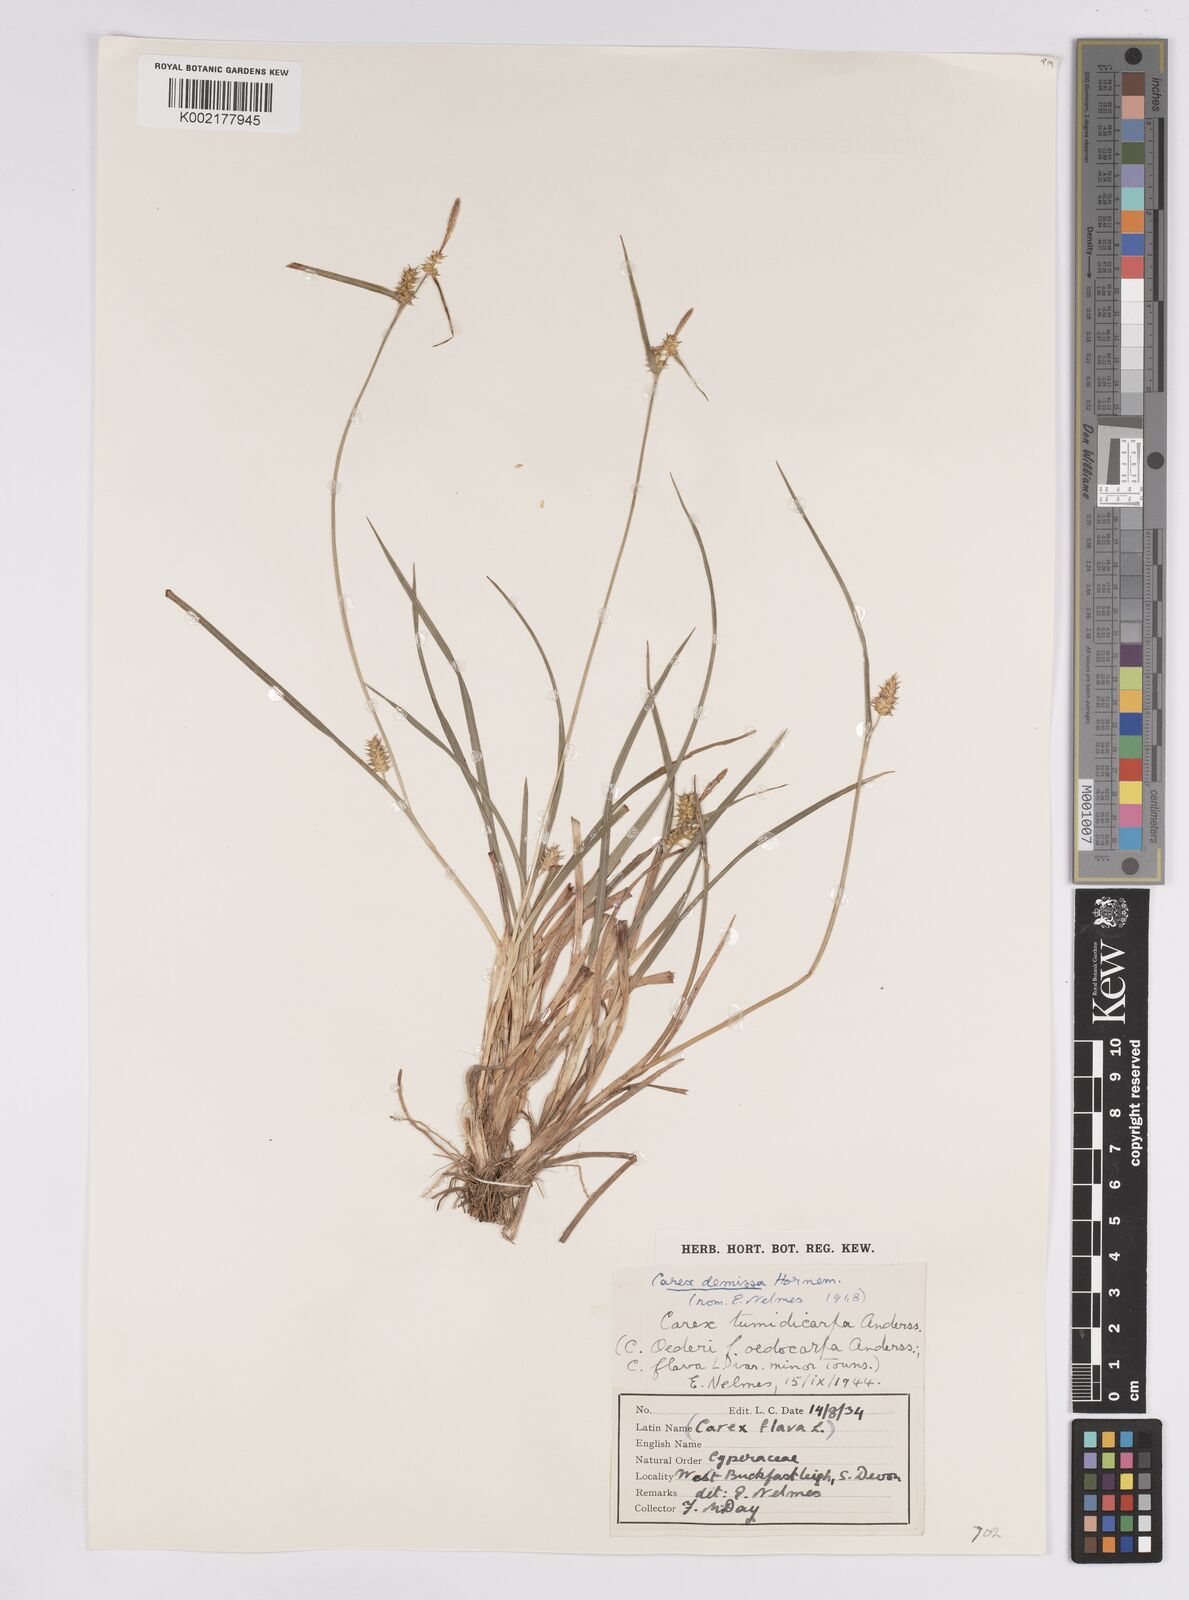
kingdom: Plantae
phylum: Tracheophyta
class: Liliopsida
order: Poales
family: Cyperaceae
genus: Carex
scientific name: Carex demissa
